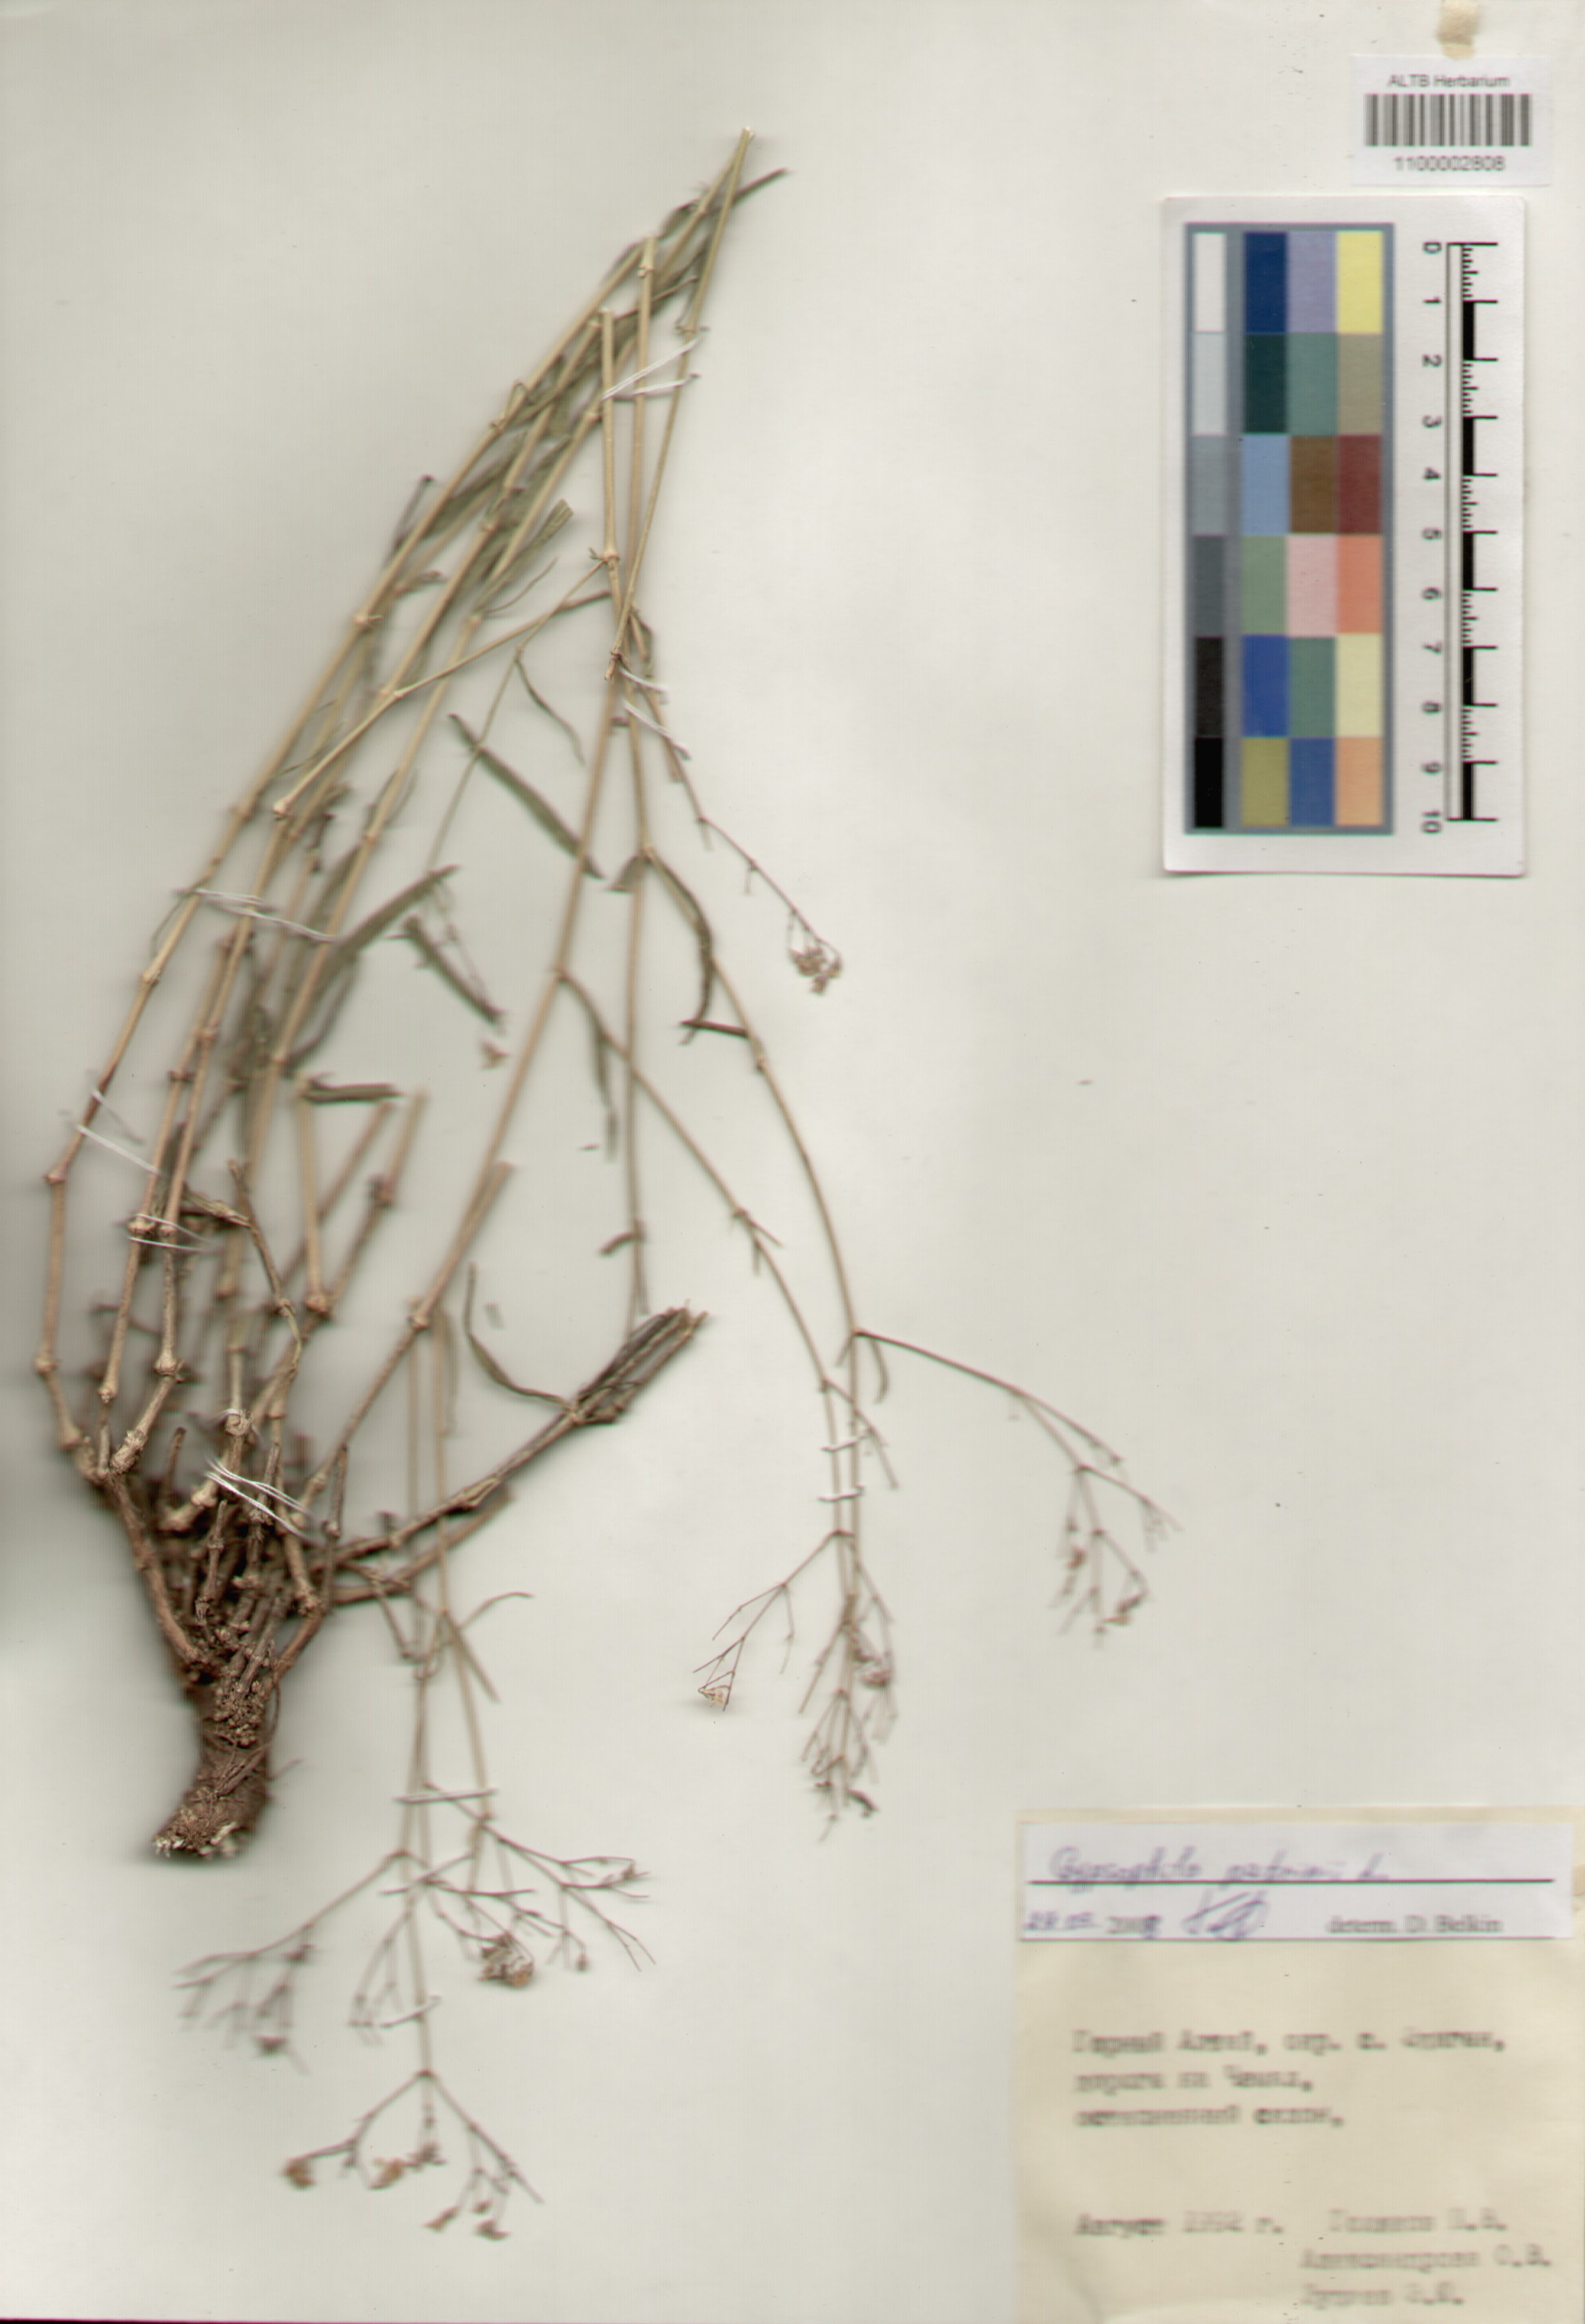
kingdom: Plantae
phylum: Tracheophyta
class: Magnoliopsida
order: Caryophyllales
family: Caryophyllaceae
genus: Gypsophila
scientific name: Gypsophila patrinii
